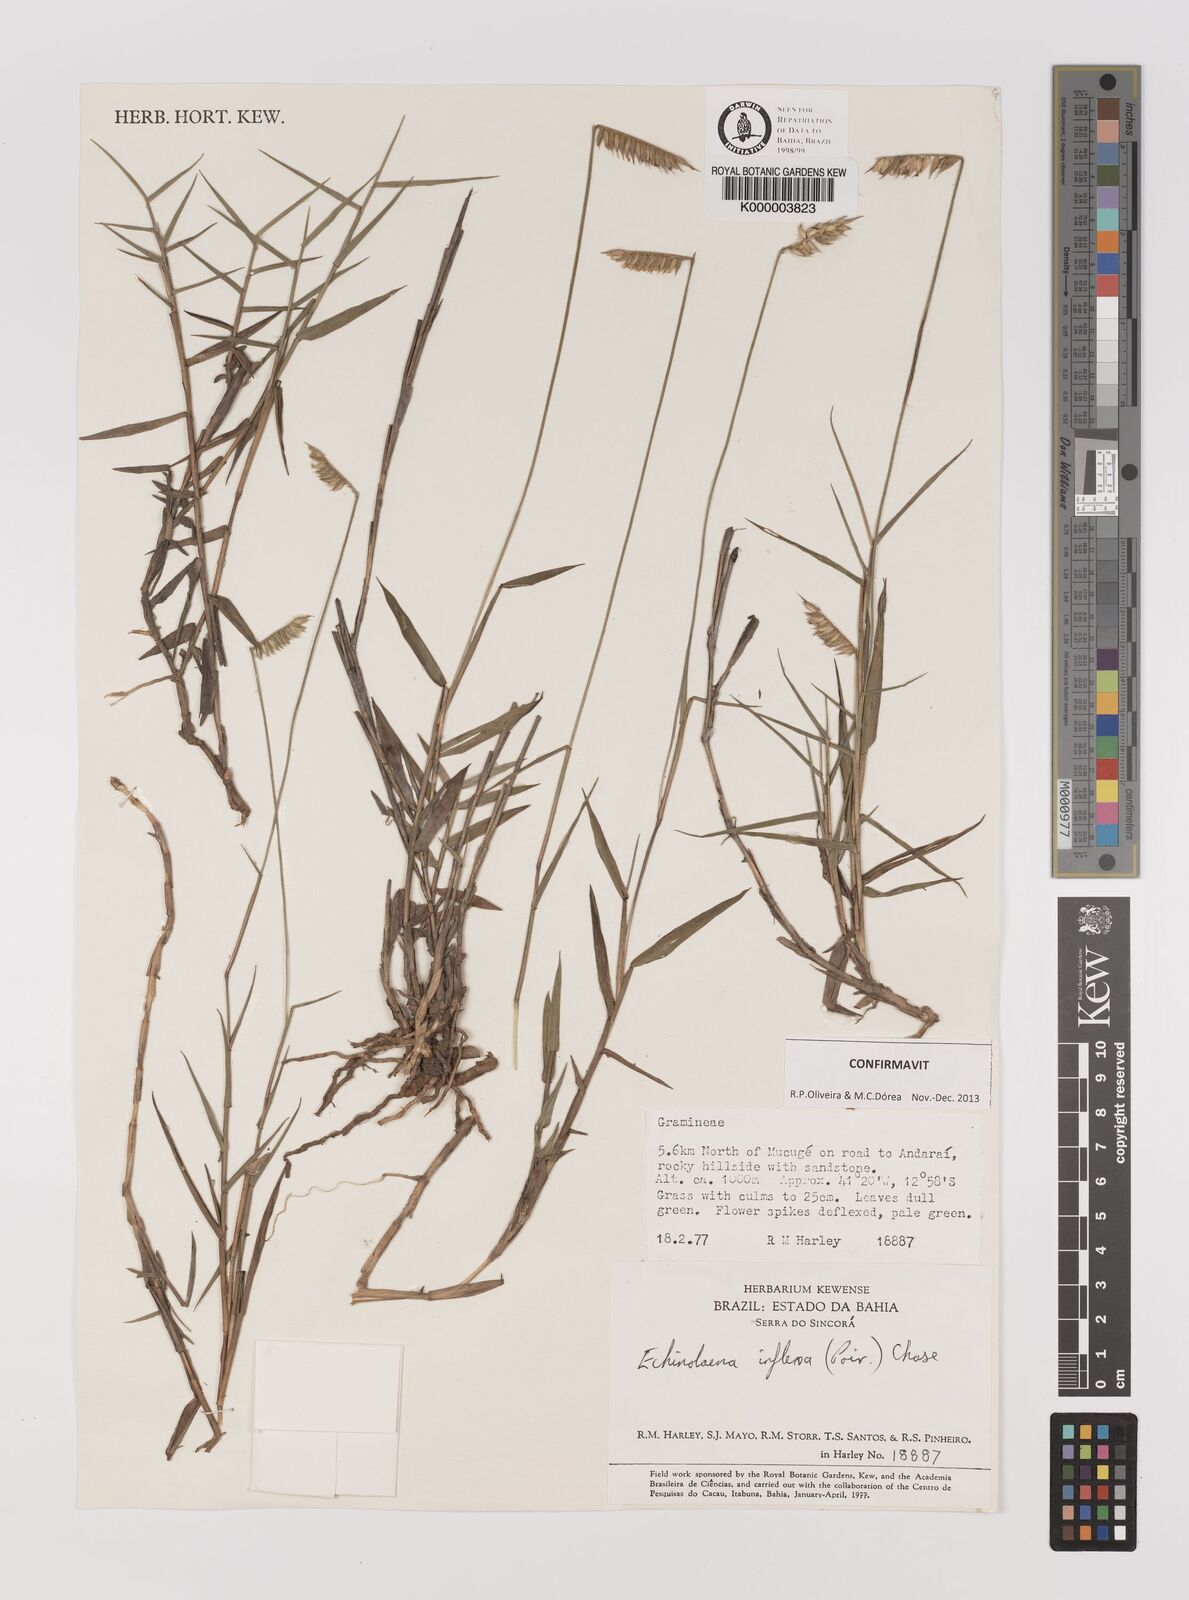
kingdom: Plantae
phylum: Tracheophyta
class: Liliopsida
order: Poales
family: Poaceae
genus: Echinolaena
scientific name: Echinolaena inflexa
